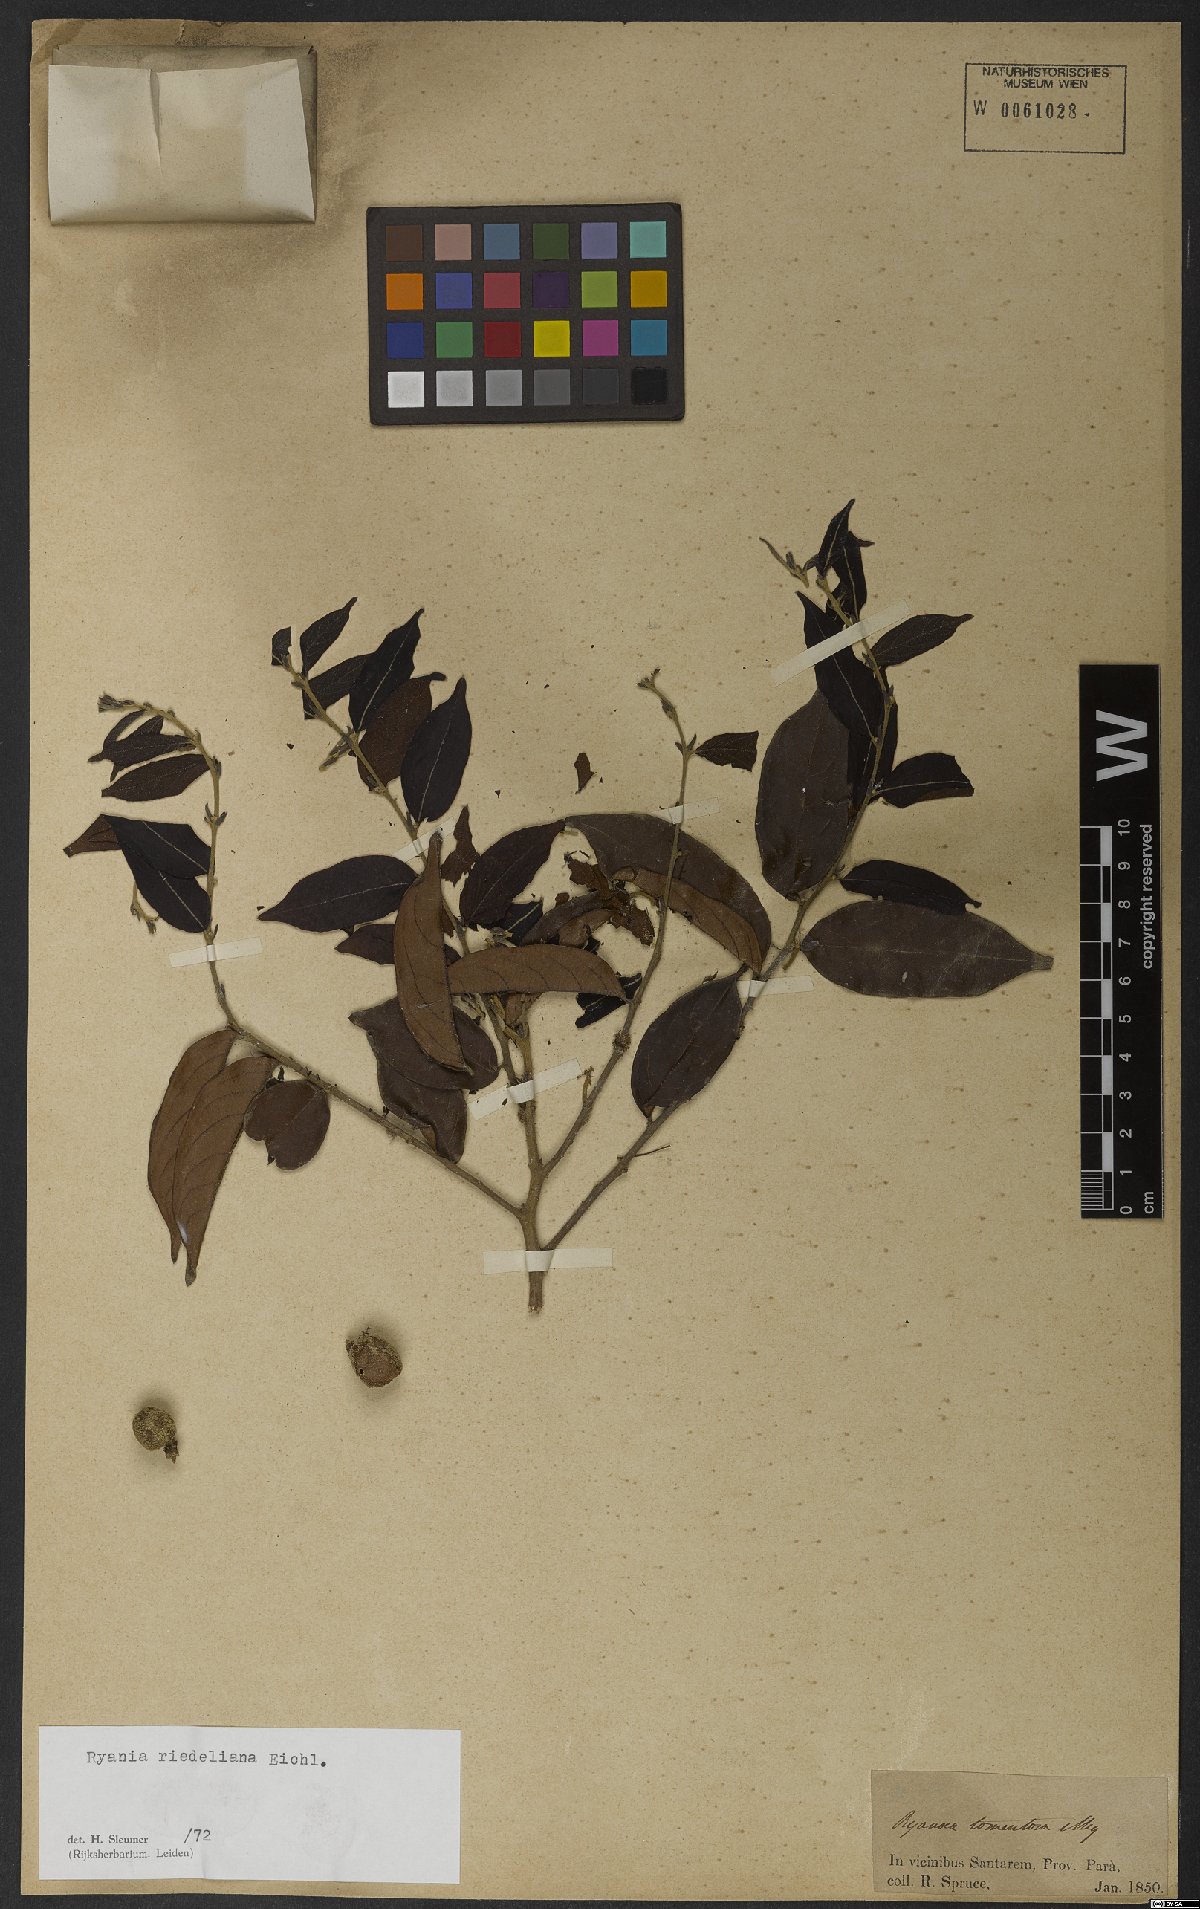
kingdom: Plantae
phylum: Tracheophyta
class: Magnoliopsida
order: Malpighiales
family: Salicaceae
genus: Ryania
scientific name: Ryania riedeliana
